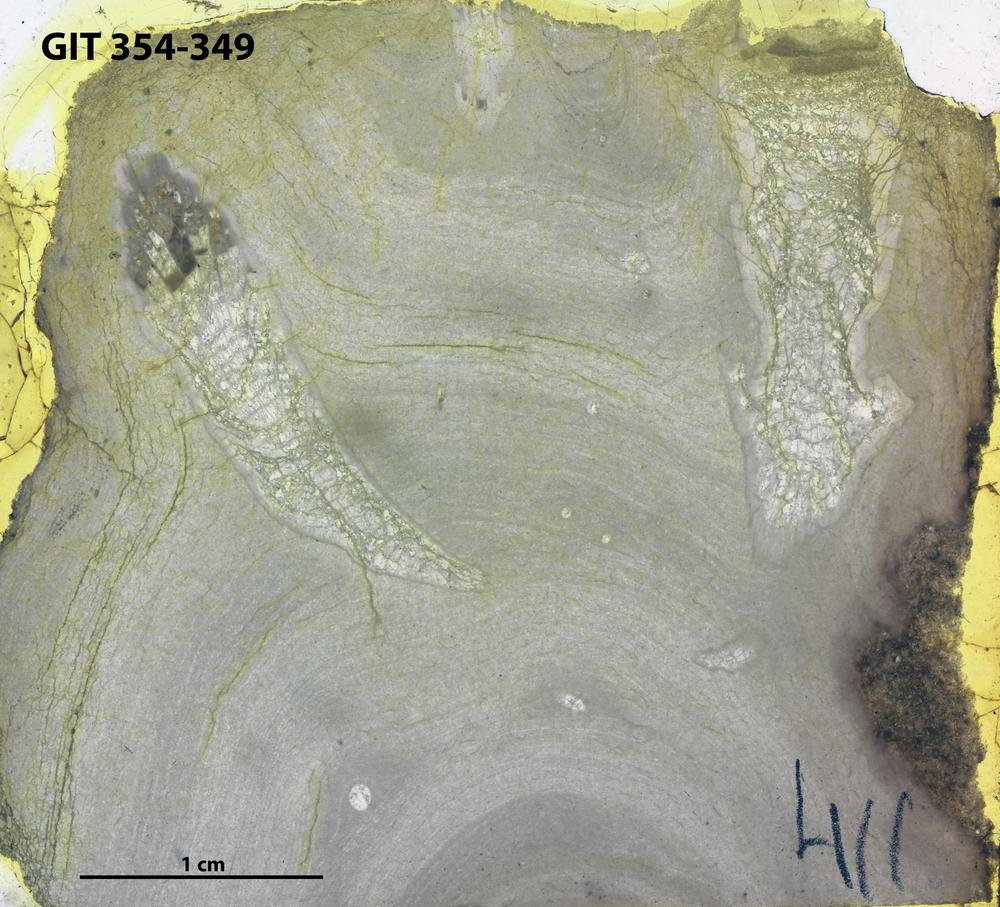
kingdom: Animalia
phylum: Porifera
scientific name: Porifera
